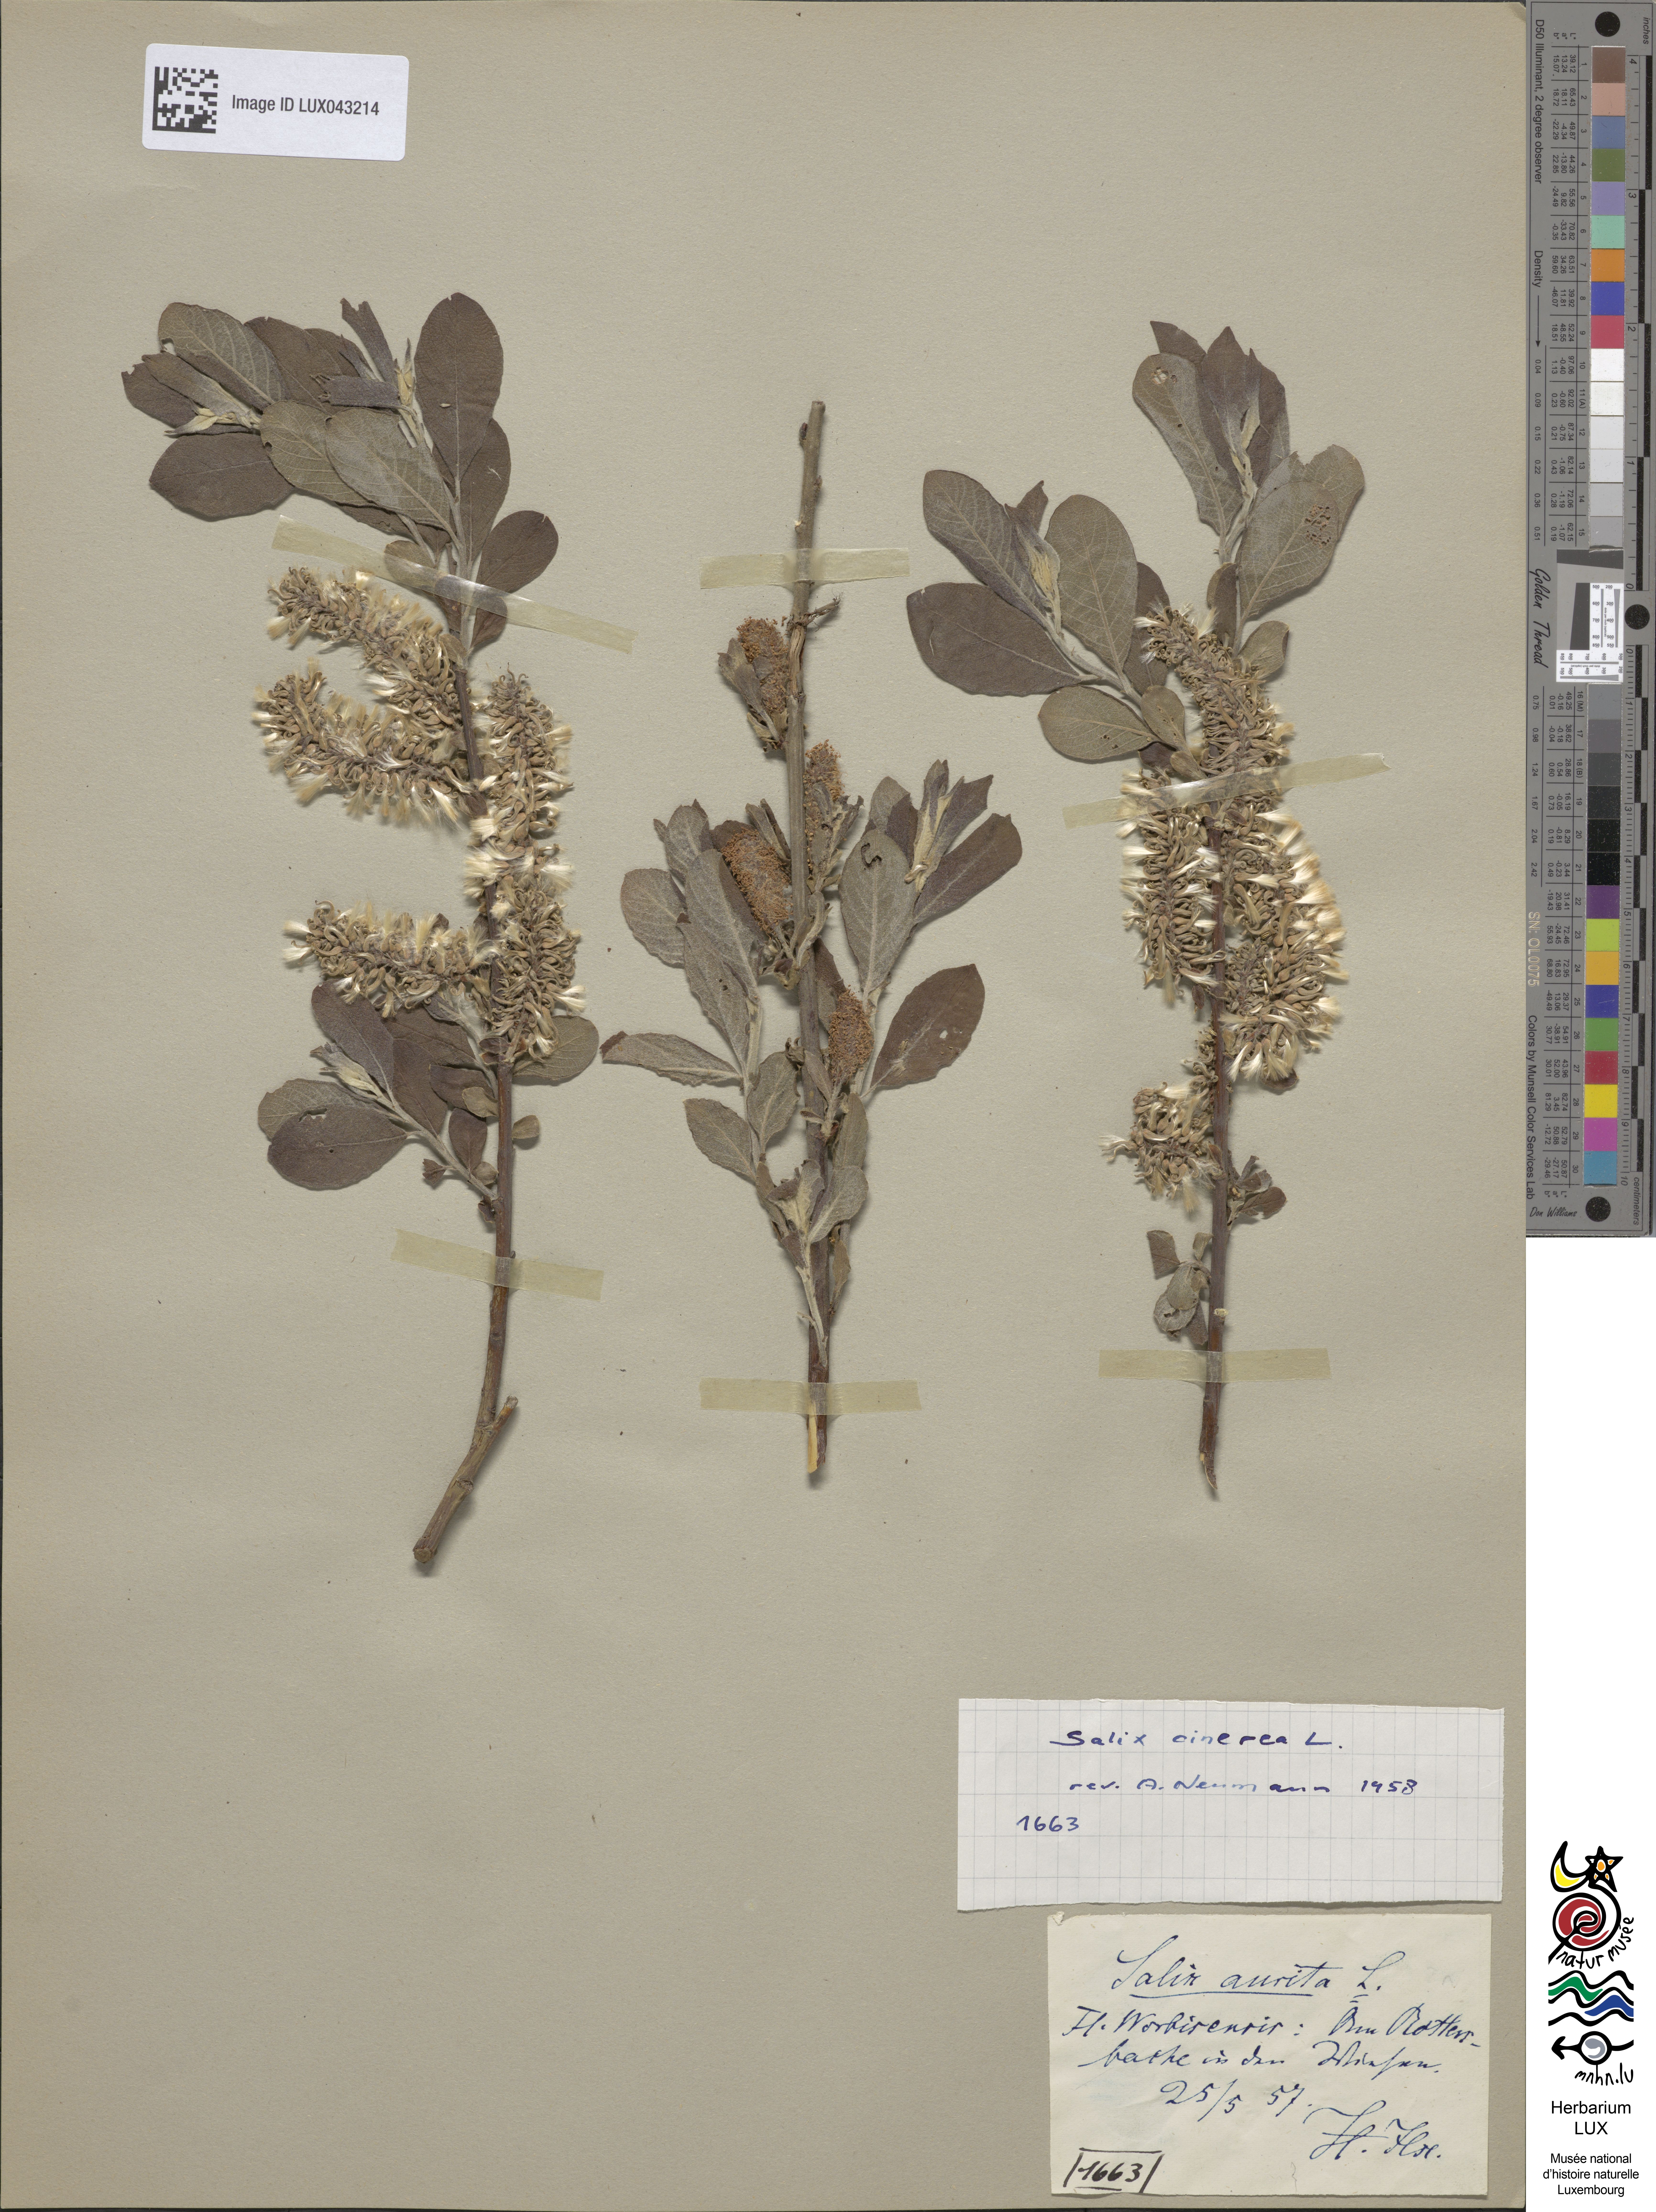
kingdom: Plantae
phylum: Tracheophyta
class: Magnoliopsida
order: Malpighiales
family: Salicaceae
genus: Salix
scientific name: Salix aurita
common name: Eared willow
